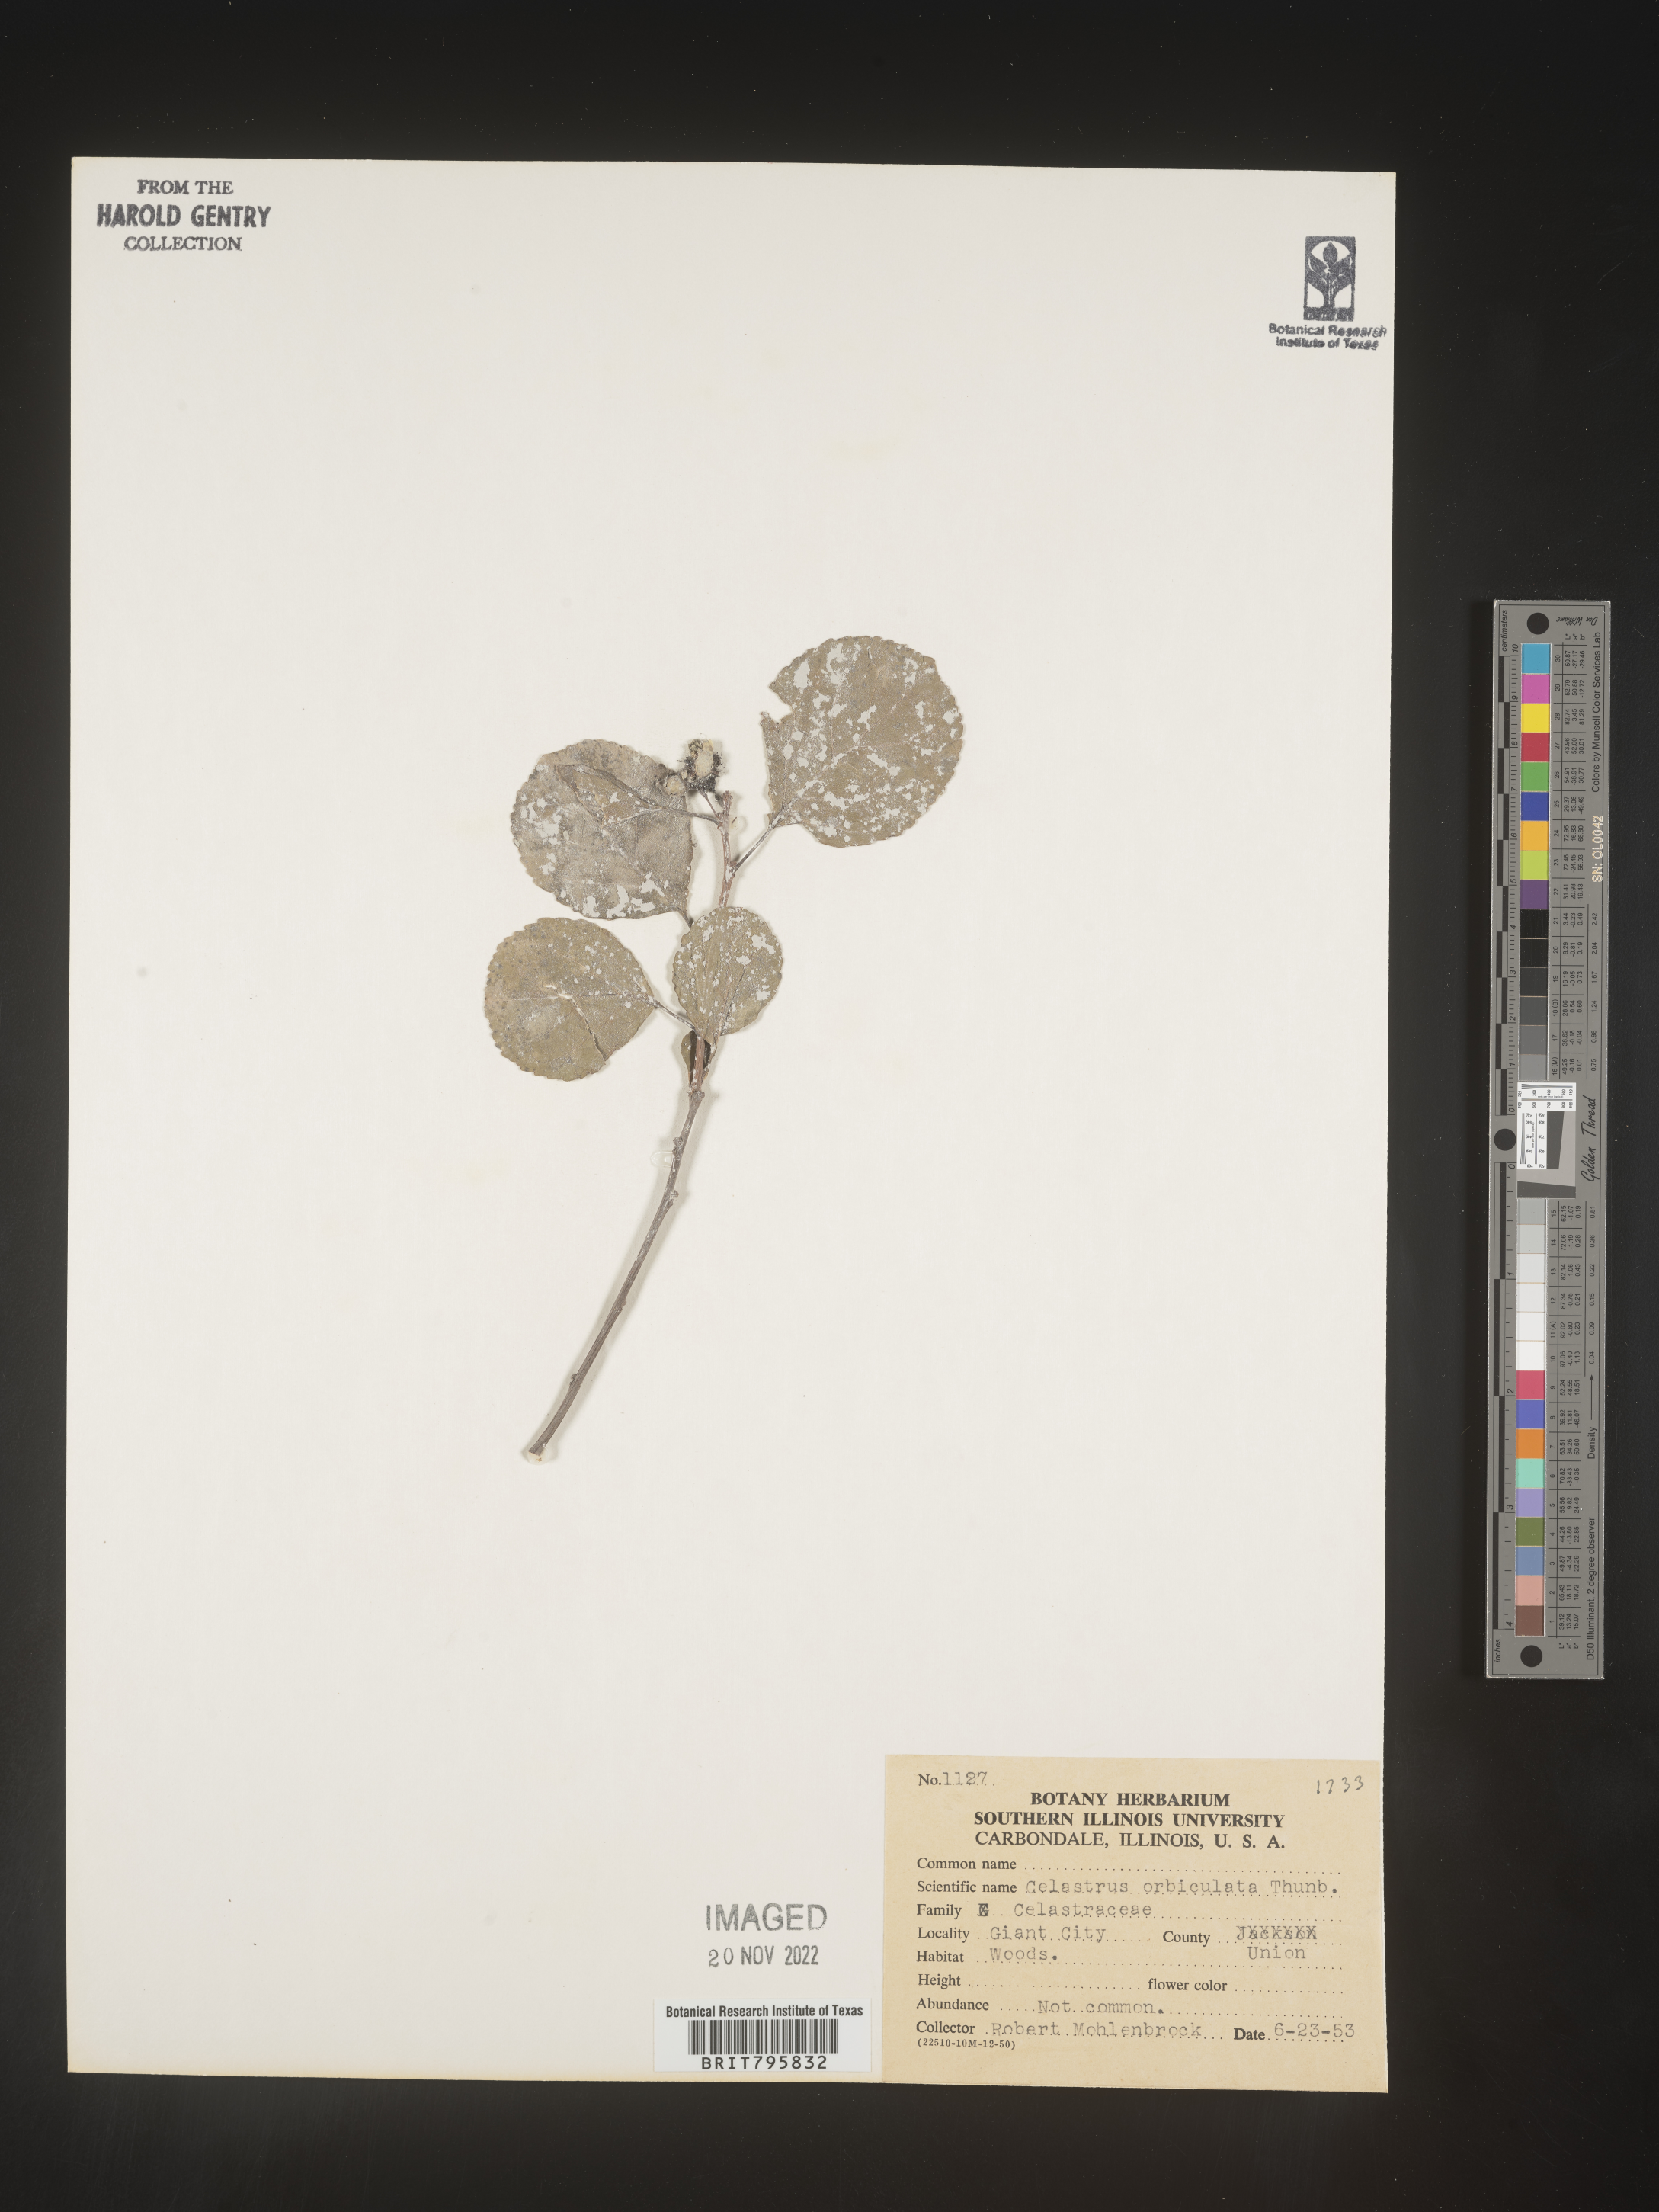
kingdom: Plantae
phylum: Tracheophyta
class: Magnoliopsida
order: Celastrales
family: Celastraceae
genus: Celastrus
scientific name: Celastrus
